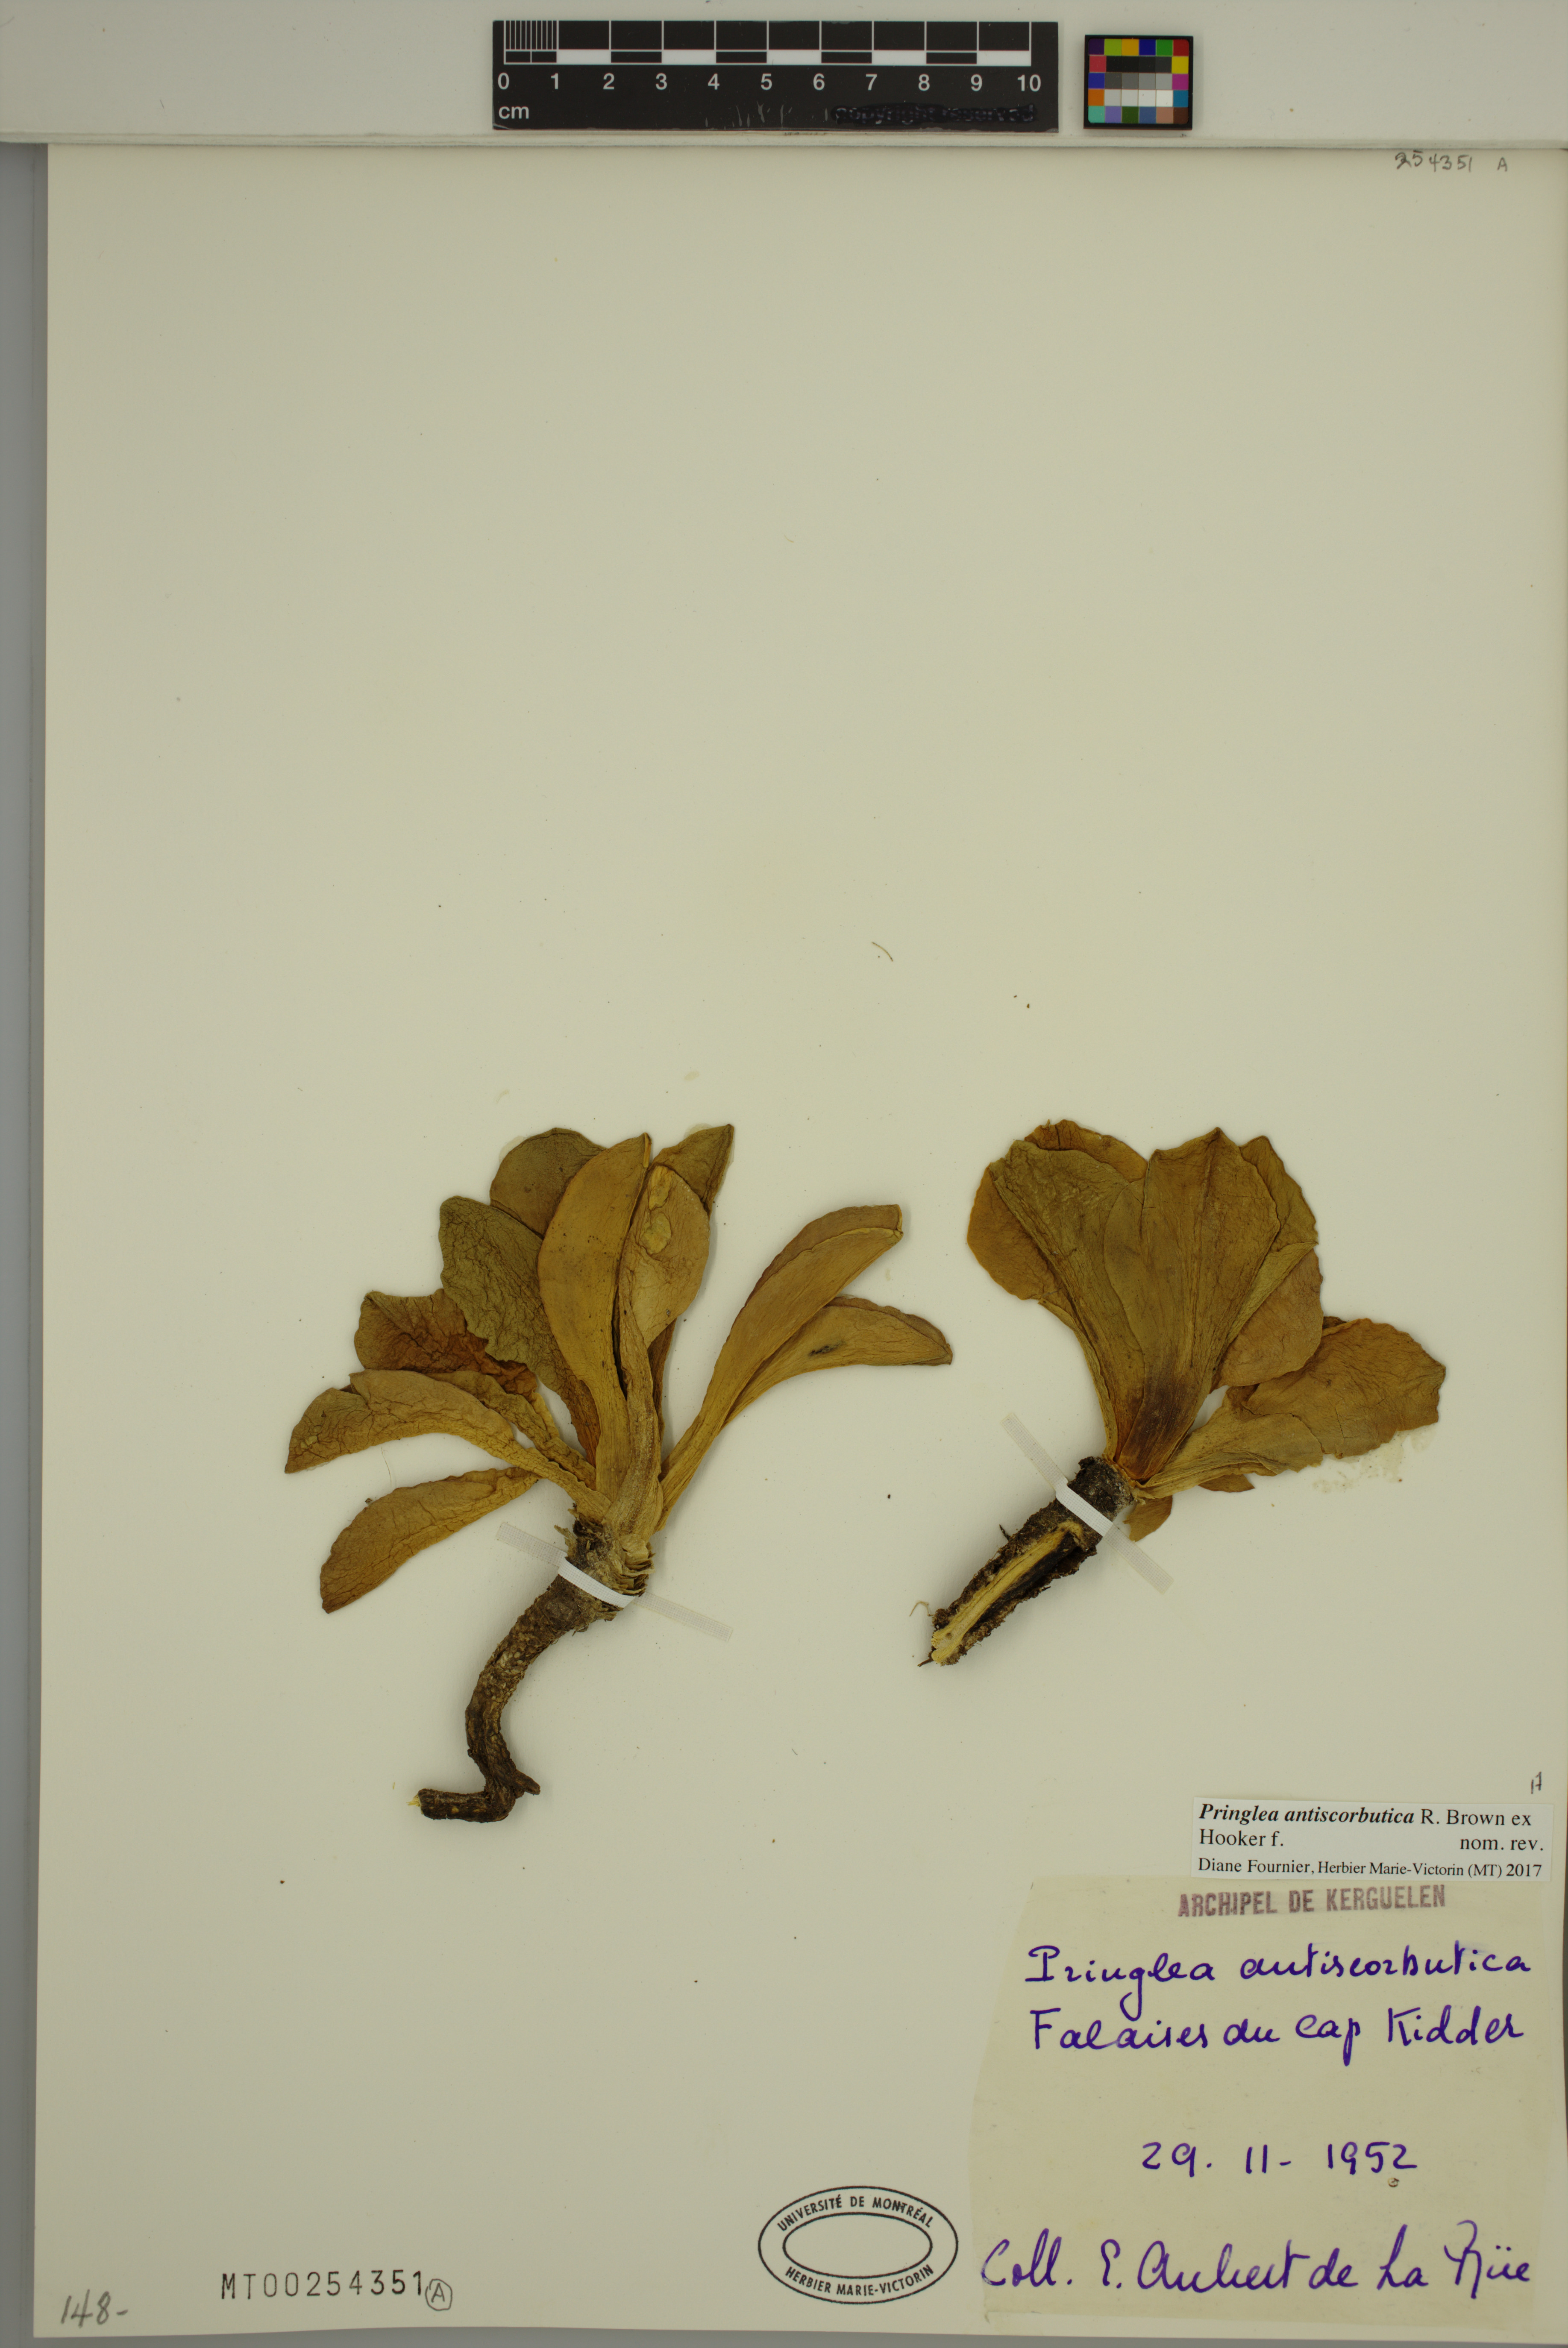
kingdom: Plantae
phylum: Tracheophyta
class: Magnoliopsida
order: Brassicales
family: Brassicaceae
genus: Pringlea
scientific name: Pringlea antiscorbutica
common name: Kerguelen-cabbage
